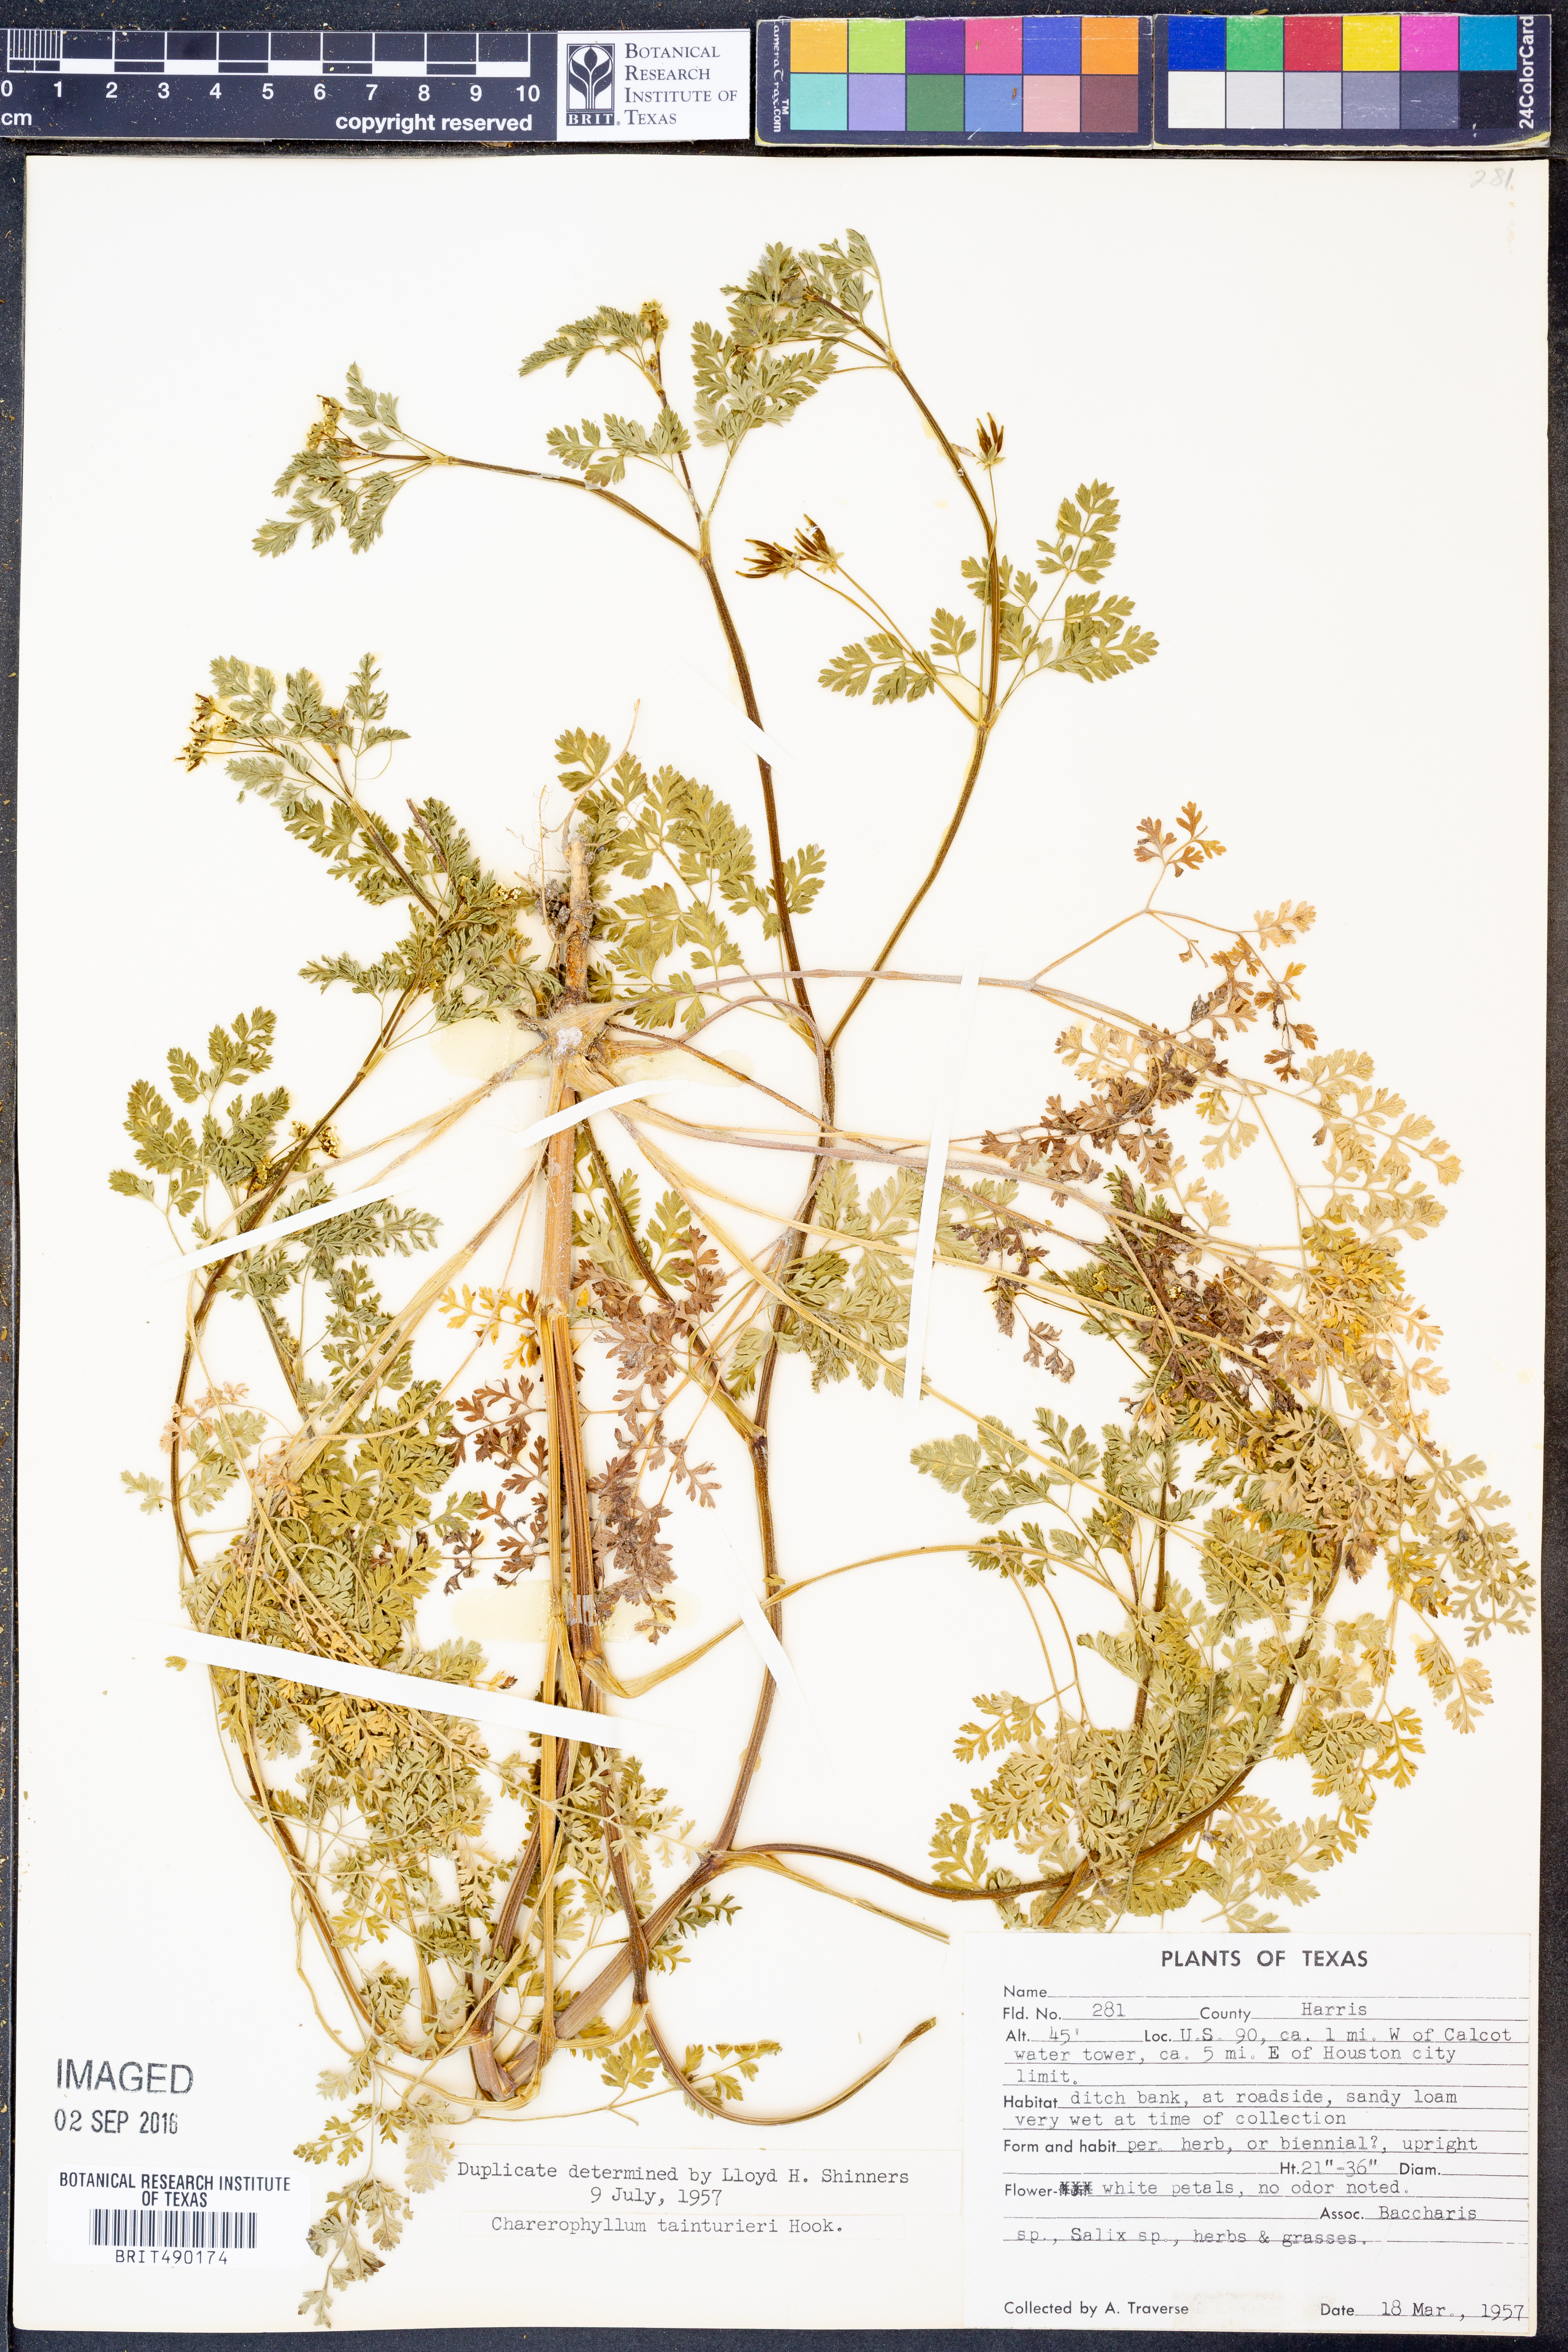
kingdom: Plantae
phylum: Tracheophyta
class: Magnoliopsida
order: Apiales
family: Apiaceae
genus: Chaerophyllum
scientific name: Chaerophyllum tainturieri
